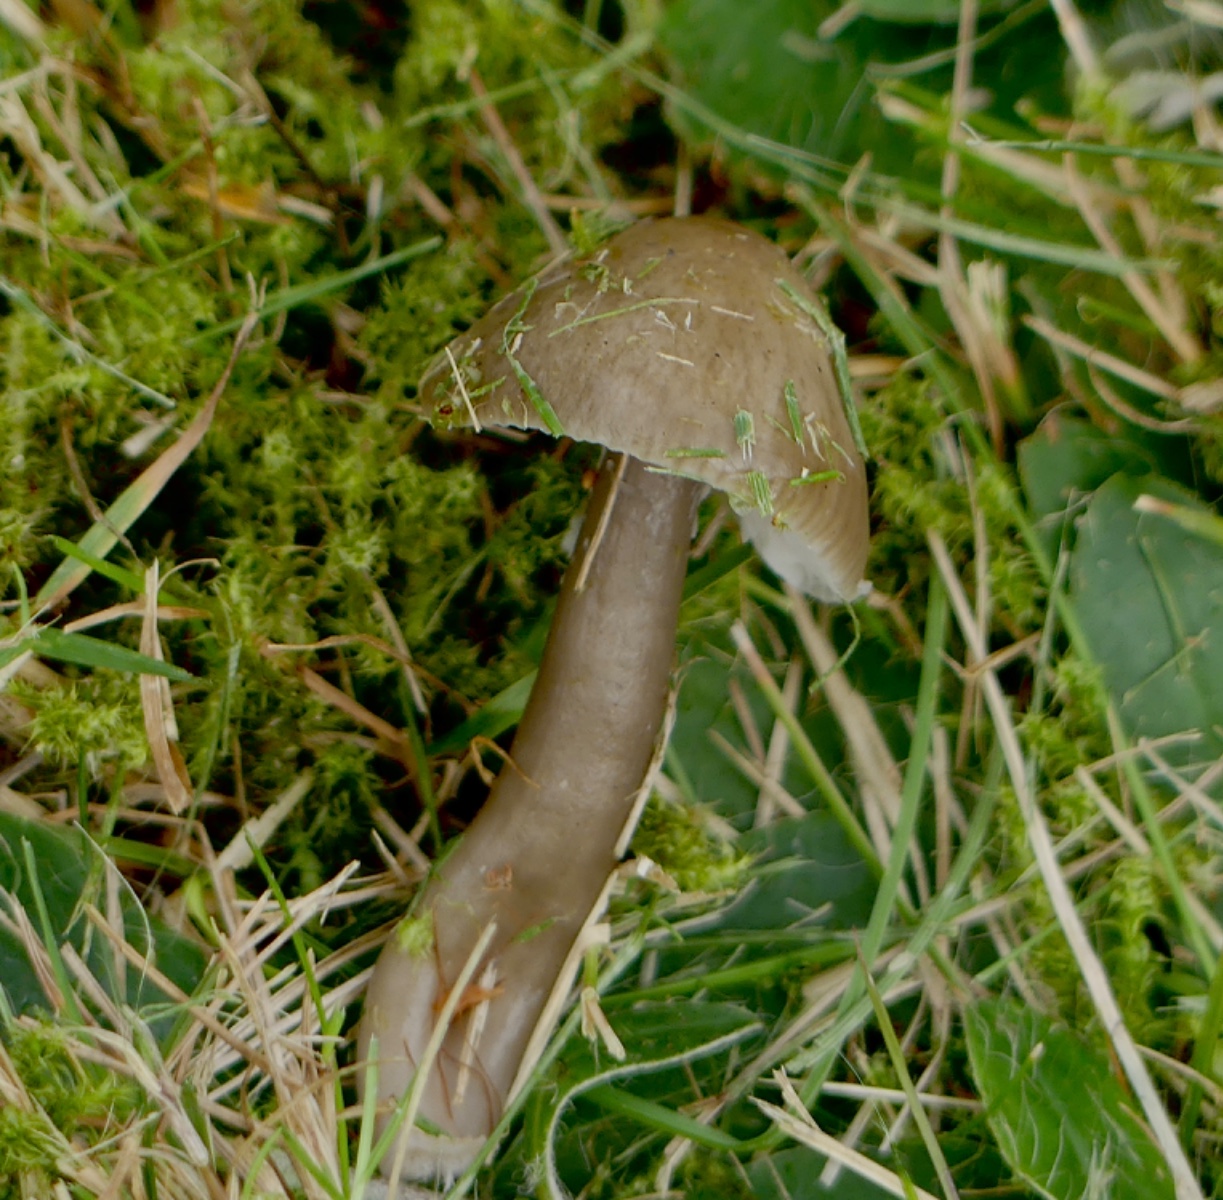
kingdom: Fungi
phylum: Basidiomycota
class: Agaricomycetes
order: Agaricales
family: Hygrophoraceae
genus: Gliophorus
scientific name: Gliophorus irrigatus
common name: slimet vokshat
